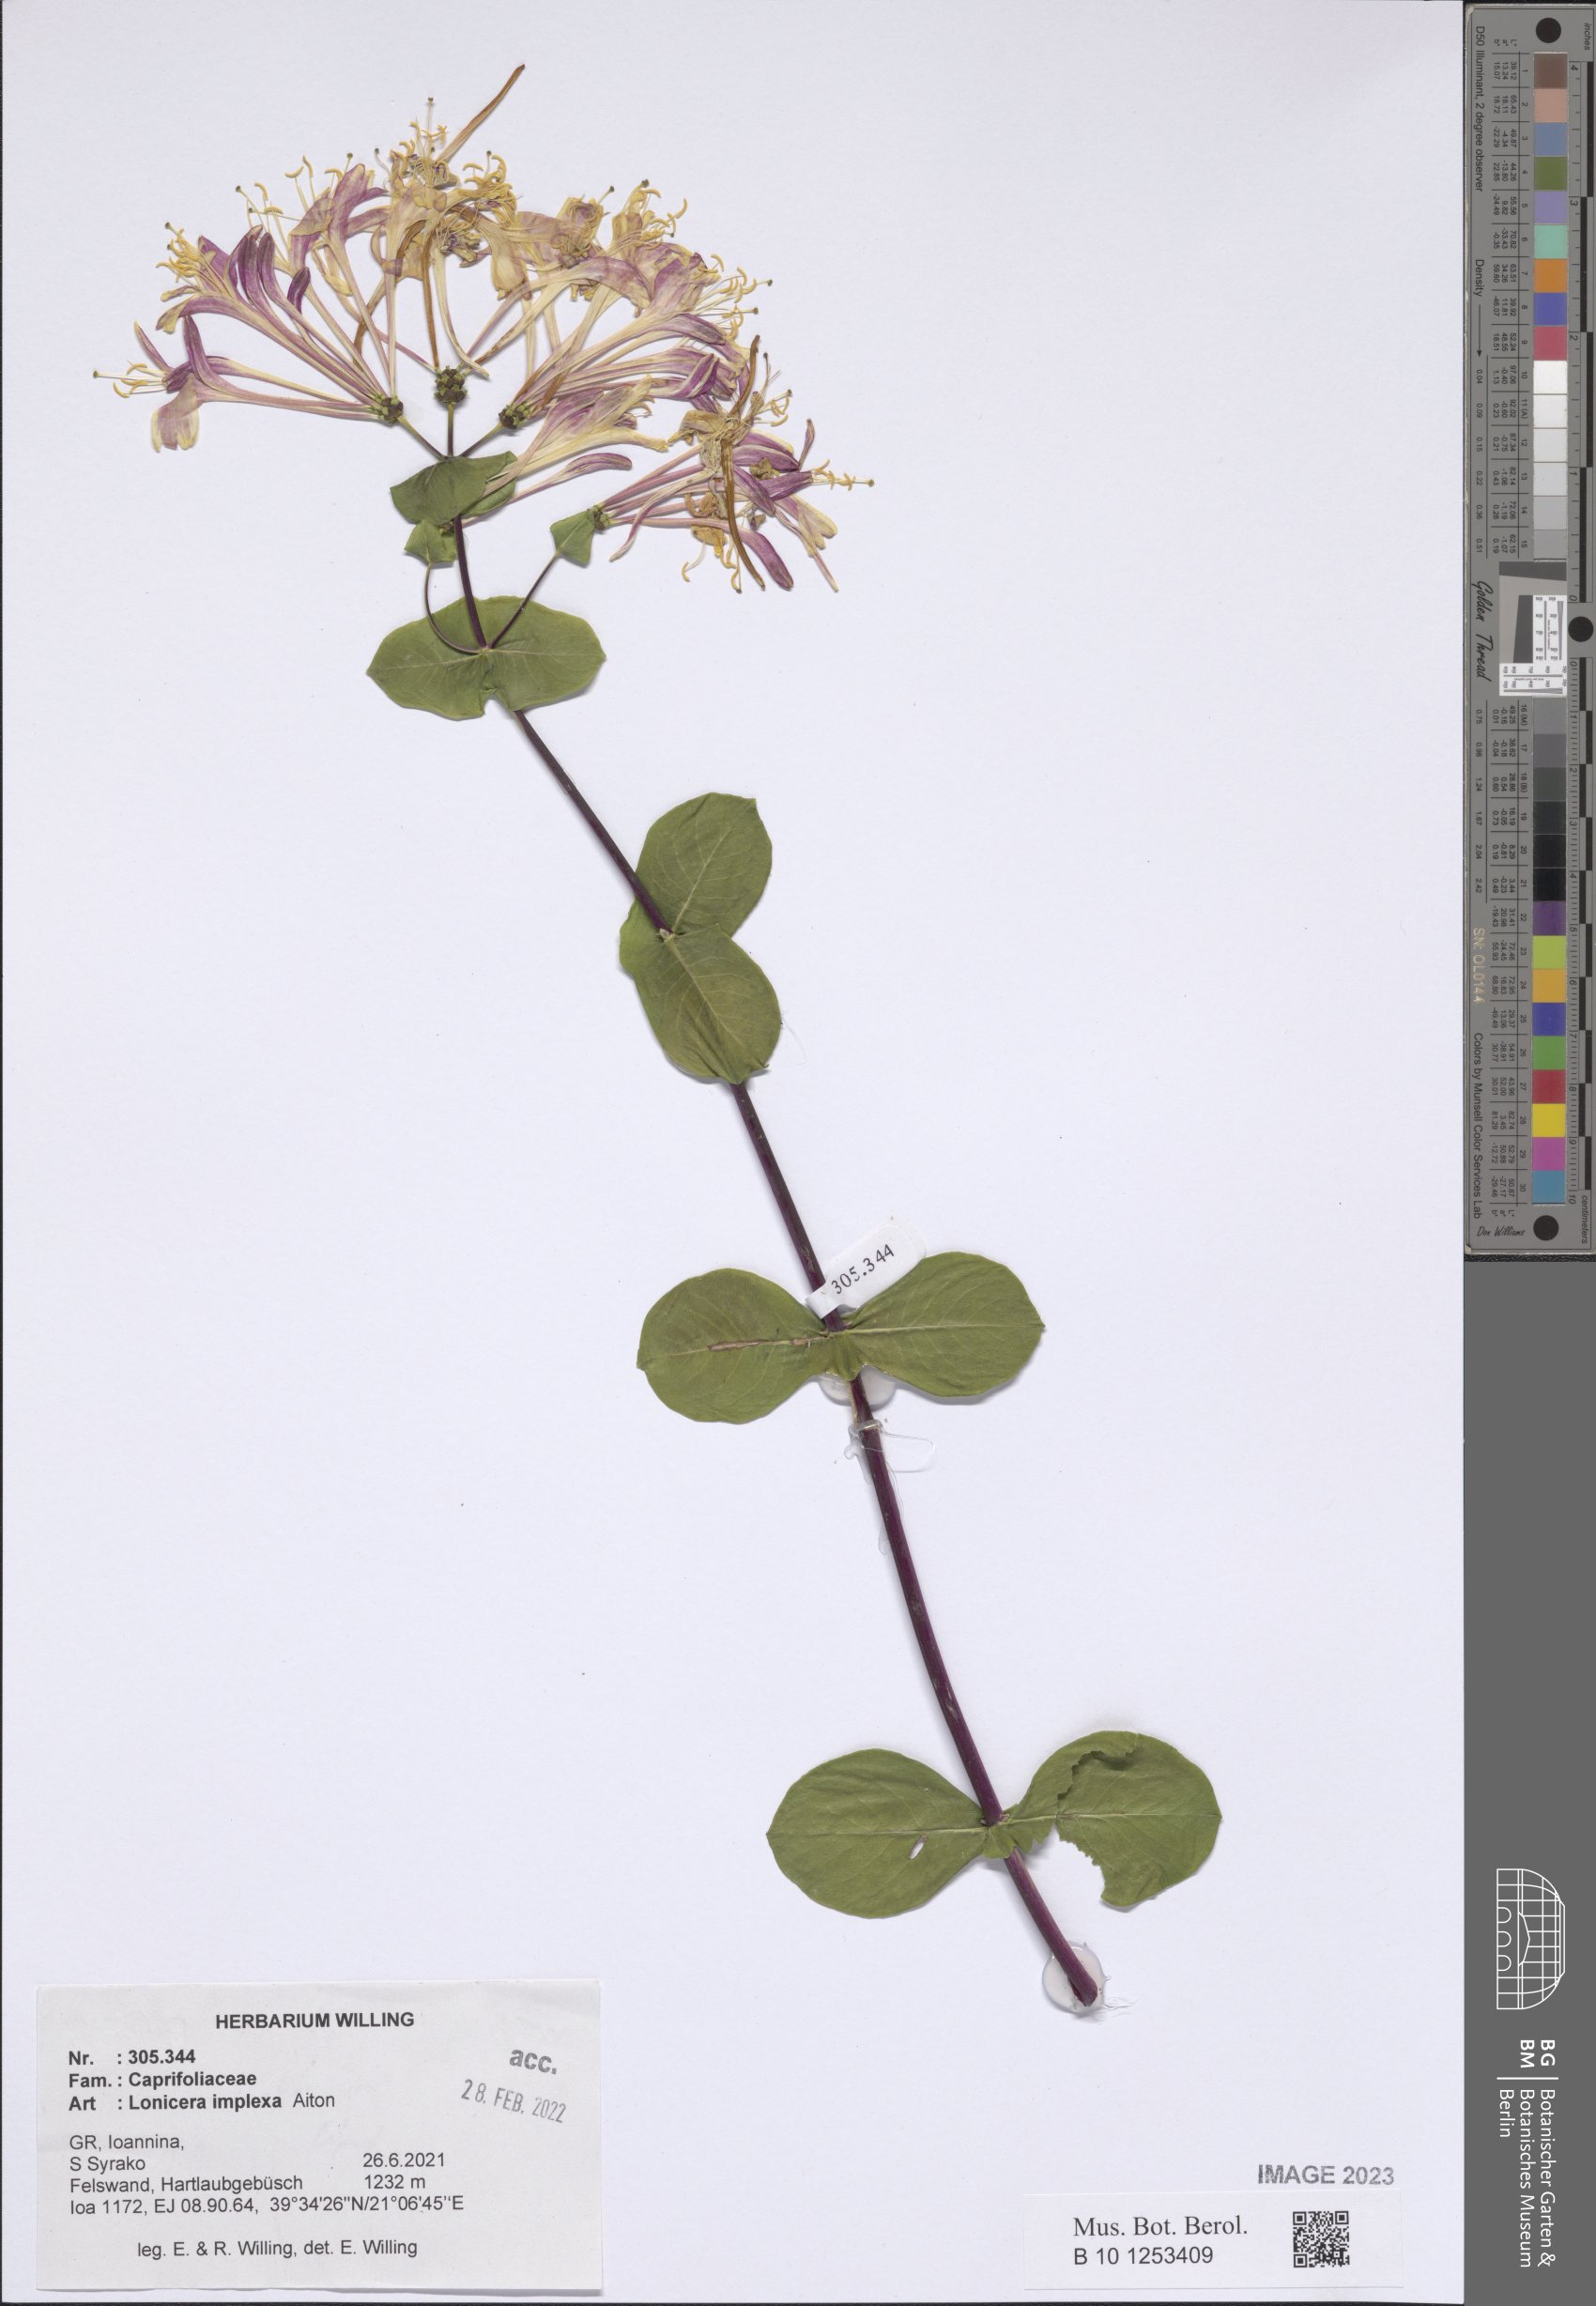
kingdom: Plantae
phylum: Tracheophyta
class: Magnoliopsida
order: Dipsacales
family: Caprifoliaceae
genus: Lonicera
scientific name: Lonicera implexa
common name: Minorca honeysuckle
